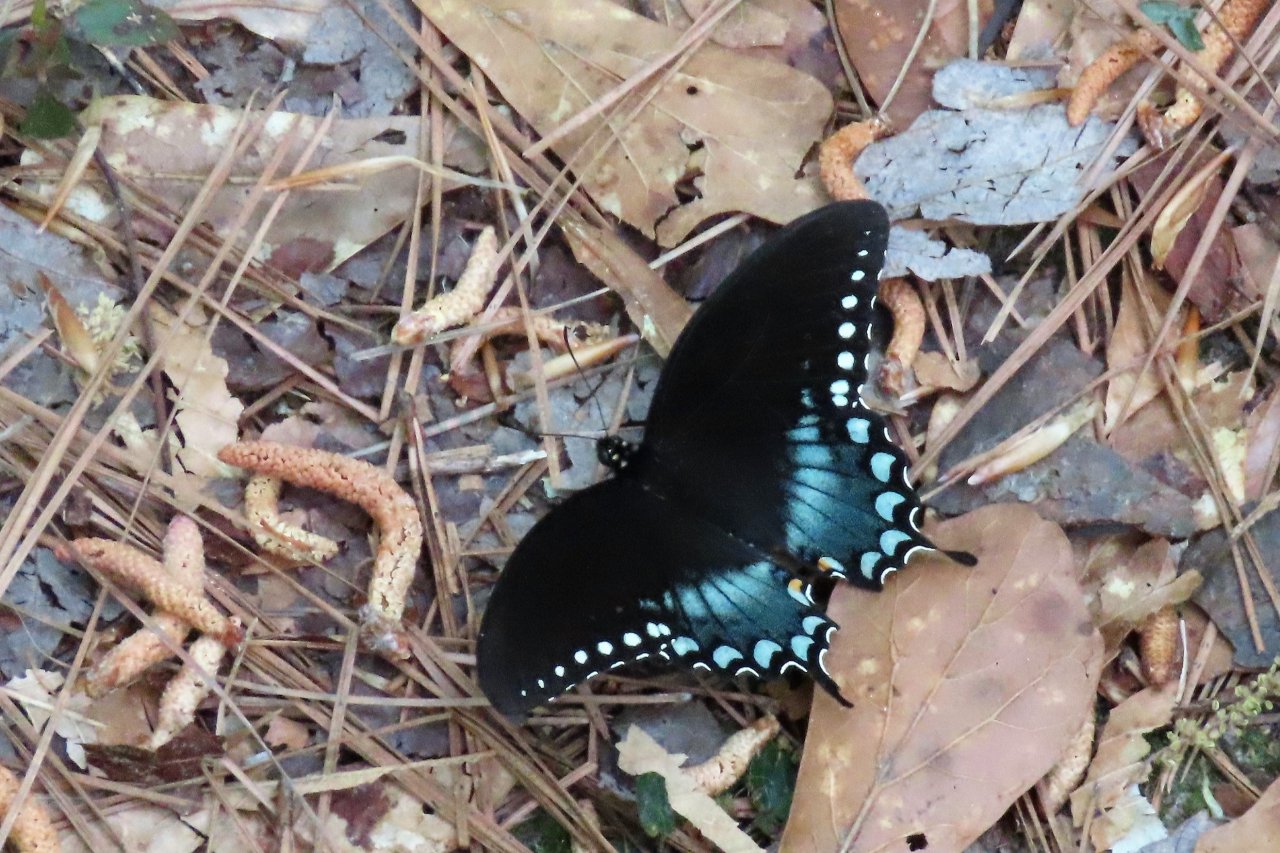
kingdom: Animalia
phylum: Arthropoda
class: Insecta
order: Lepidoptera
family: Papilionidae
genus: Pterourus
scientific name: Pterourus troilus
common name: Spicebush Swallowtail
